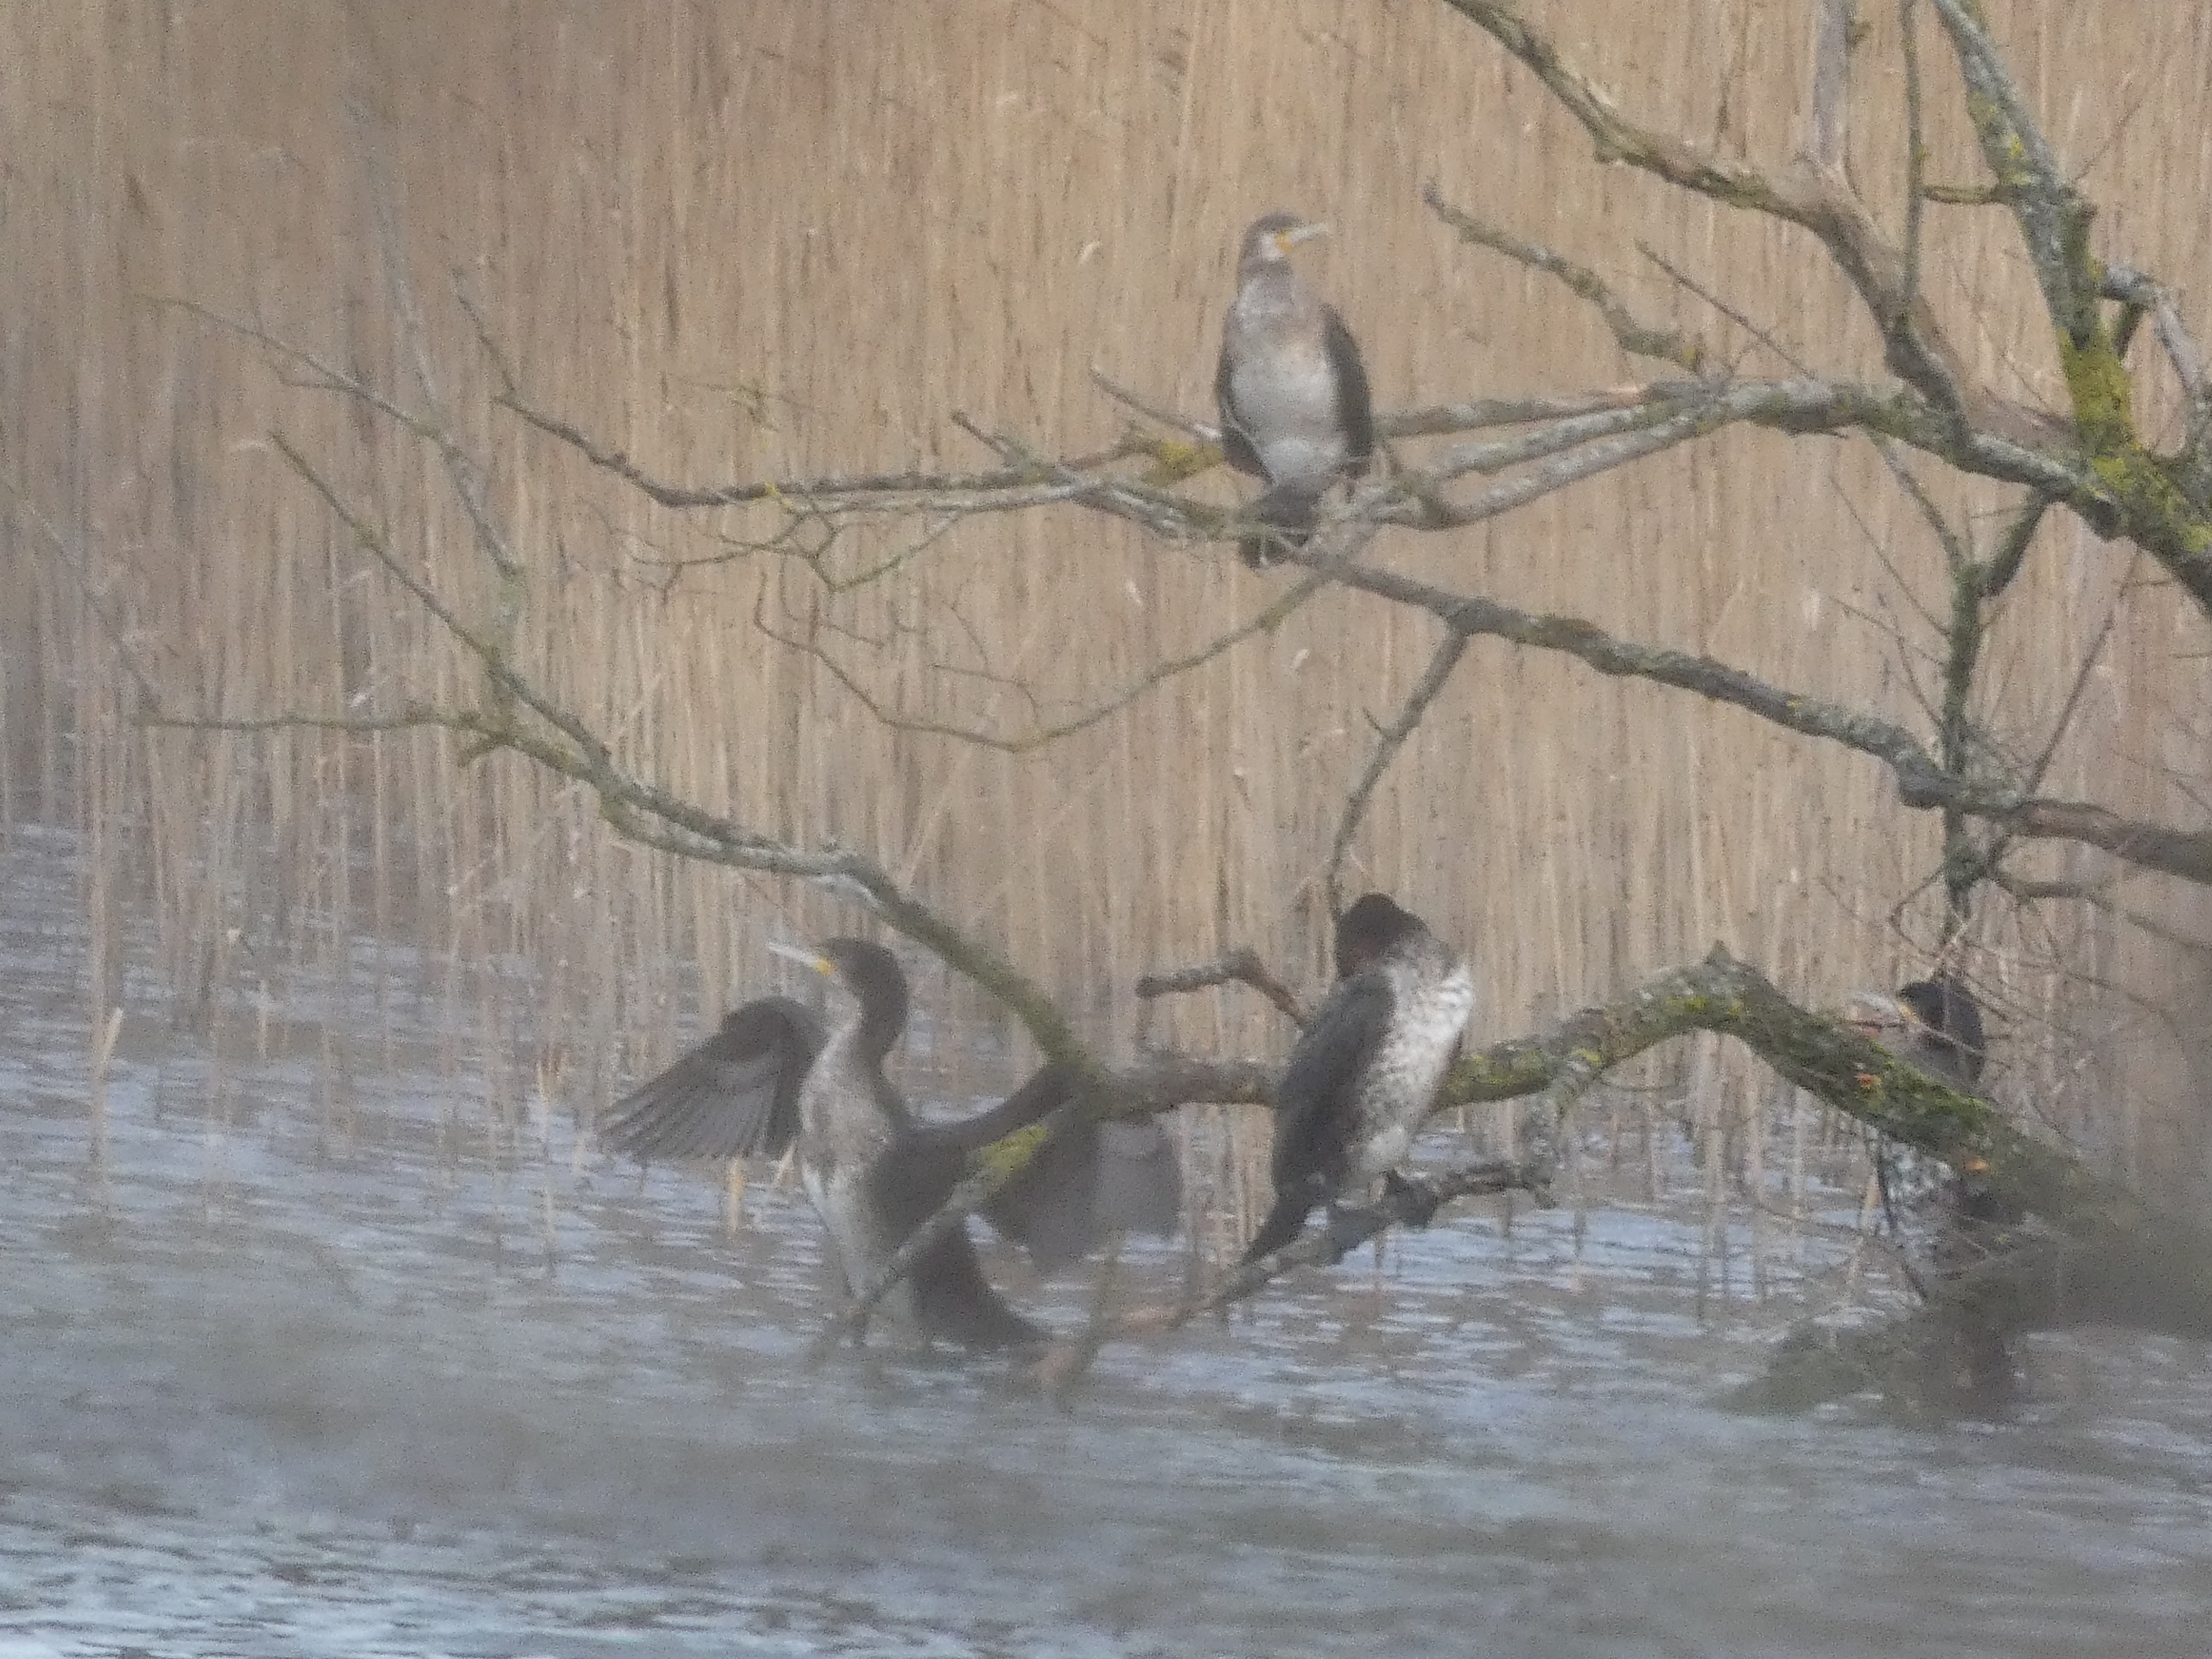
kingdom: Animalia
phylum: Chordata
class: Aves
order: Suliformes
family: Phalacrocoracidae
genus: Phalacrocorax
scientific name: Phalacrocorax carbo
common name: Skarv
